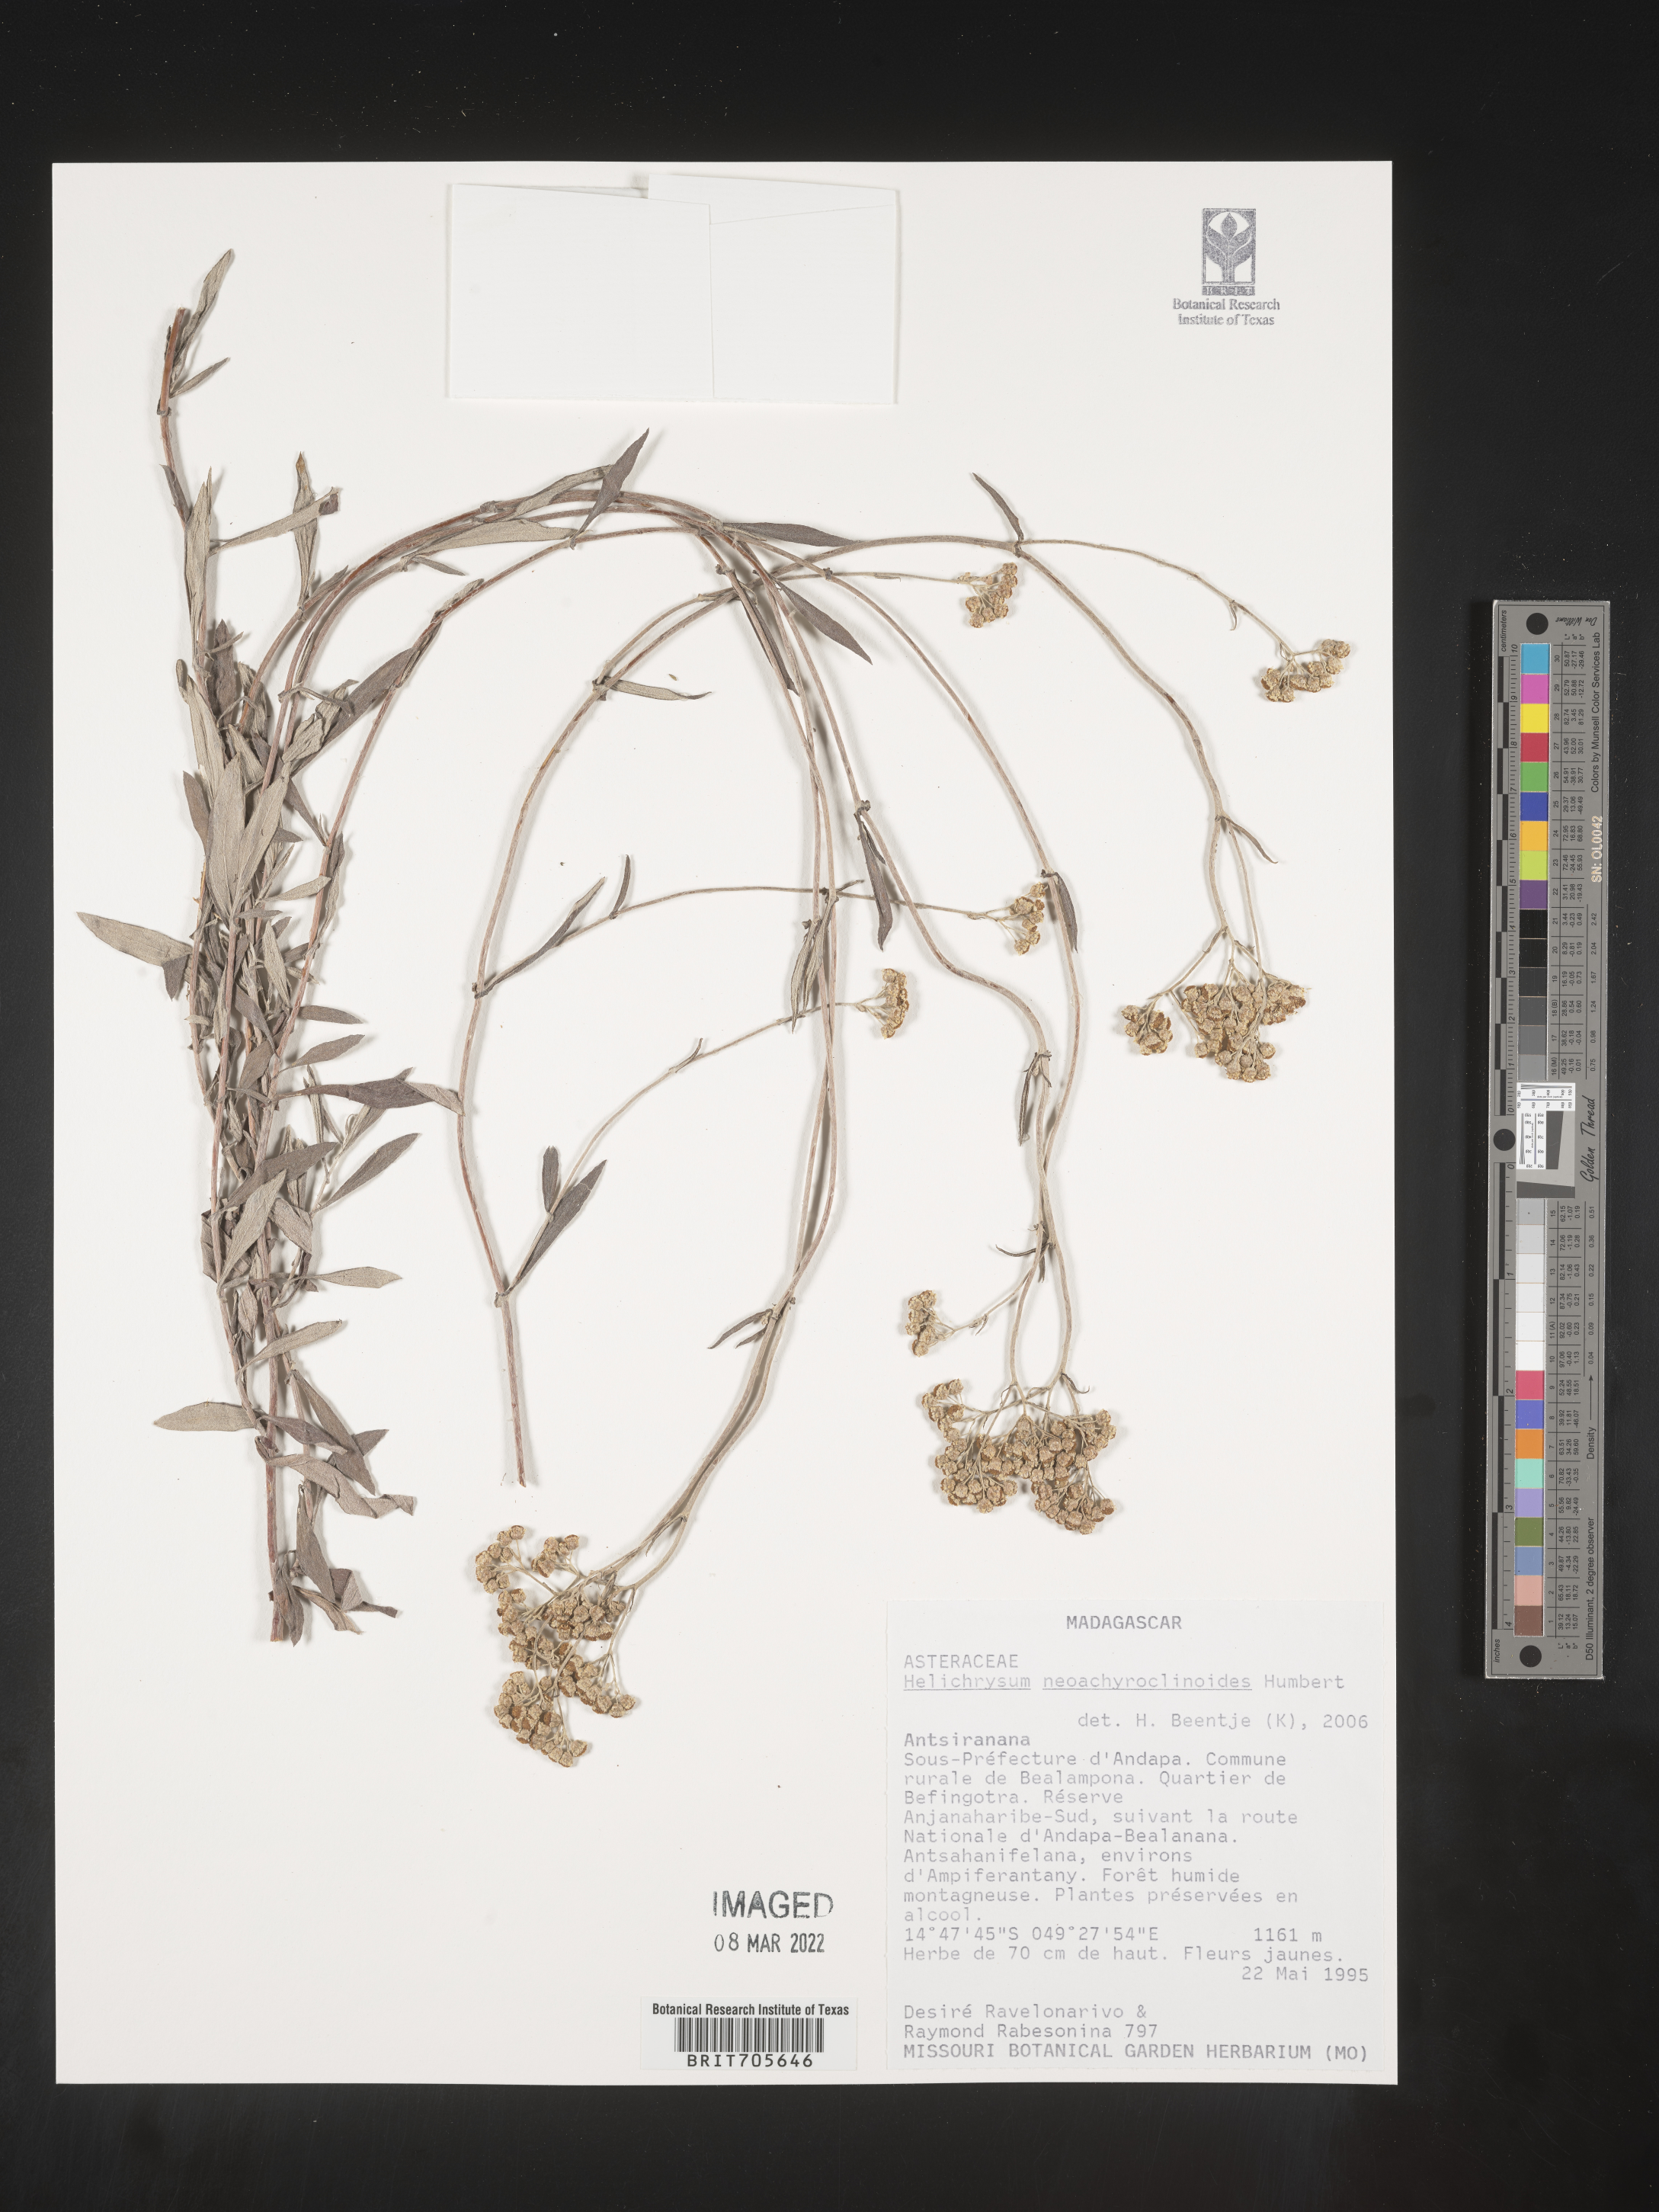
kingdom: Plantae
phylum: Tracheophyta
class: Magnoliopsida
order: Asterales
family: Asteraceae
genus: Helichrysum
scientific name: Helichrysum
